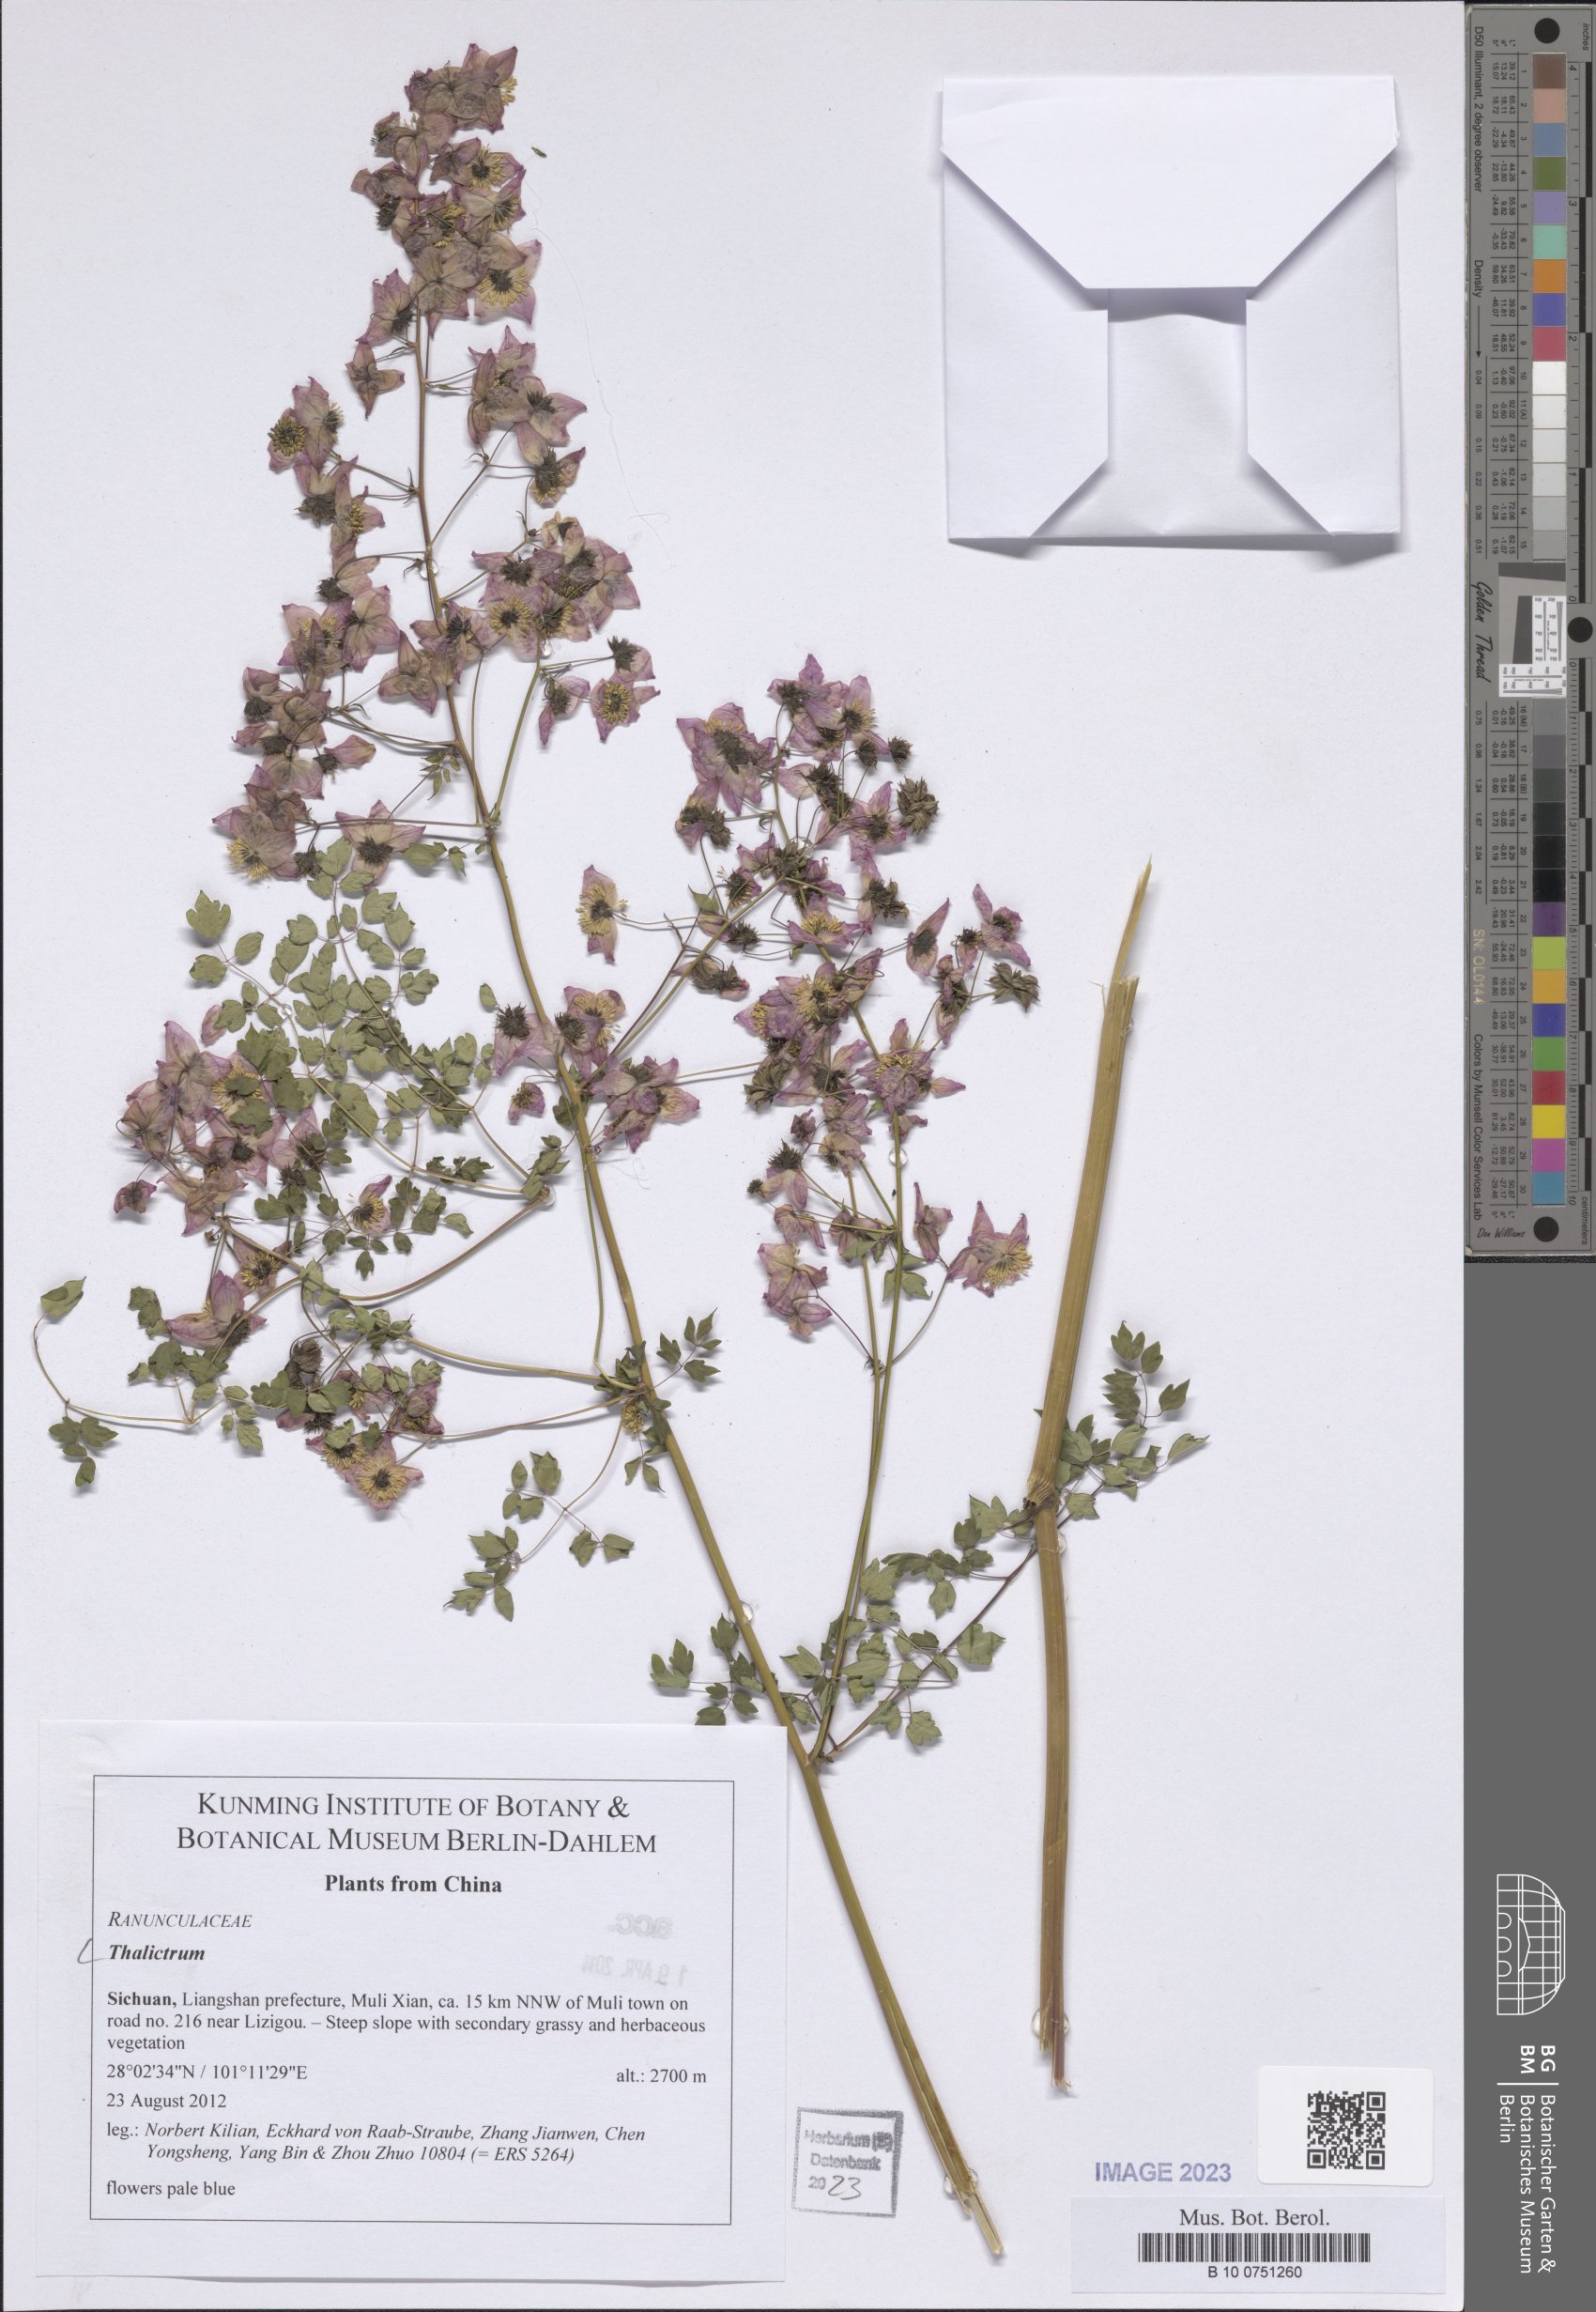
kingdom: Plantae
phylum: Tracheophyta
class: Magnoliopsida
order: Ranunculales
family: Ranunculaceae
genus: Thalictrum
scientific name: Thalictrum
